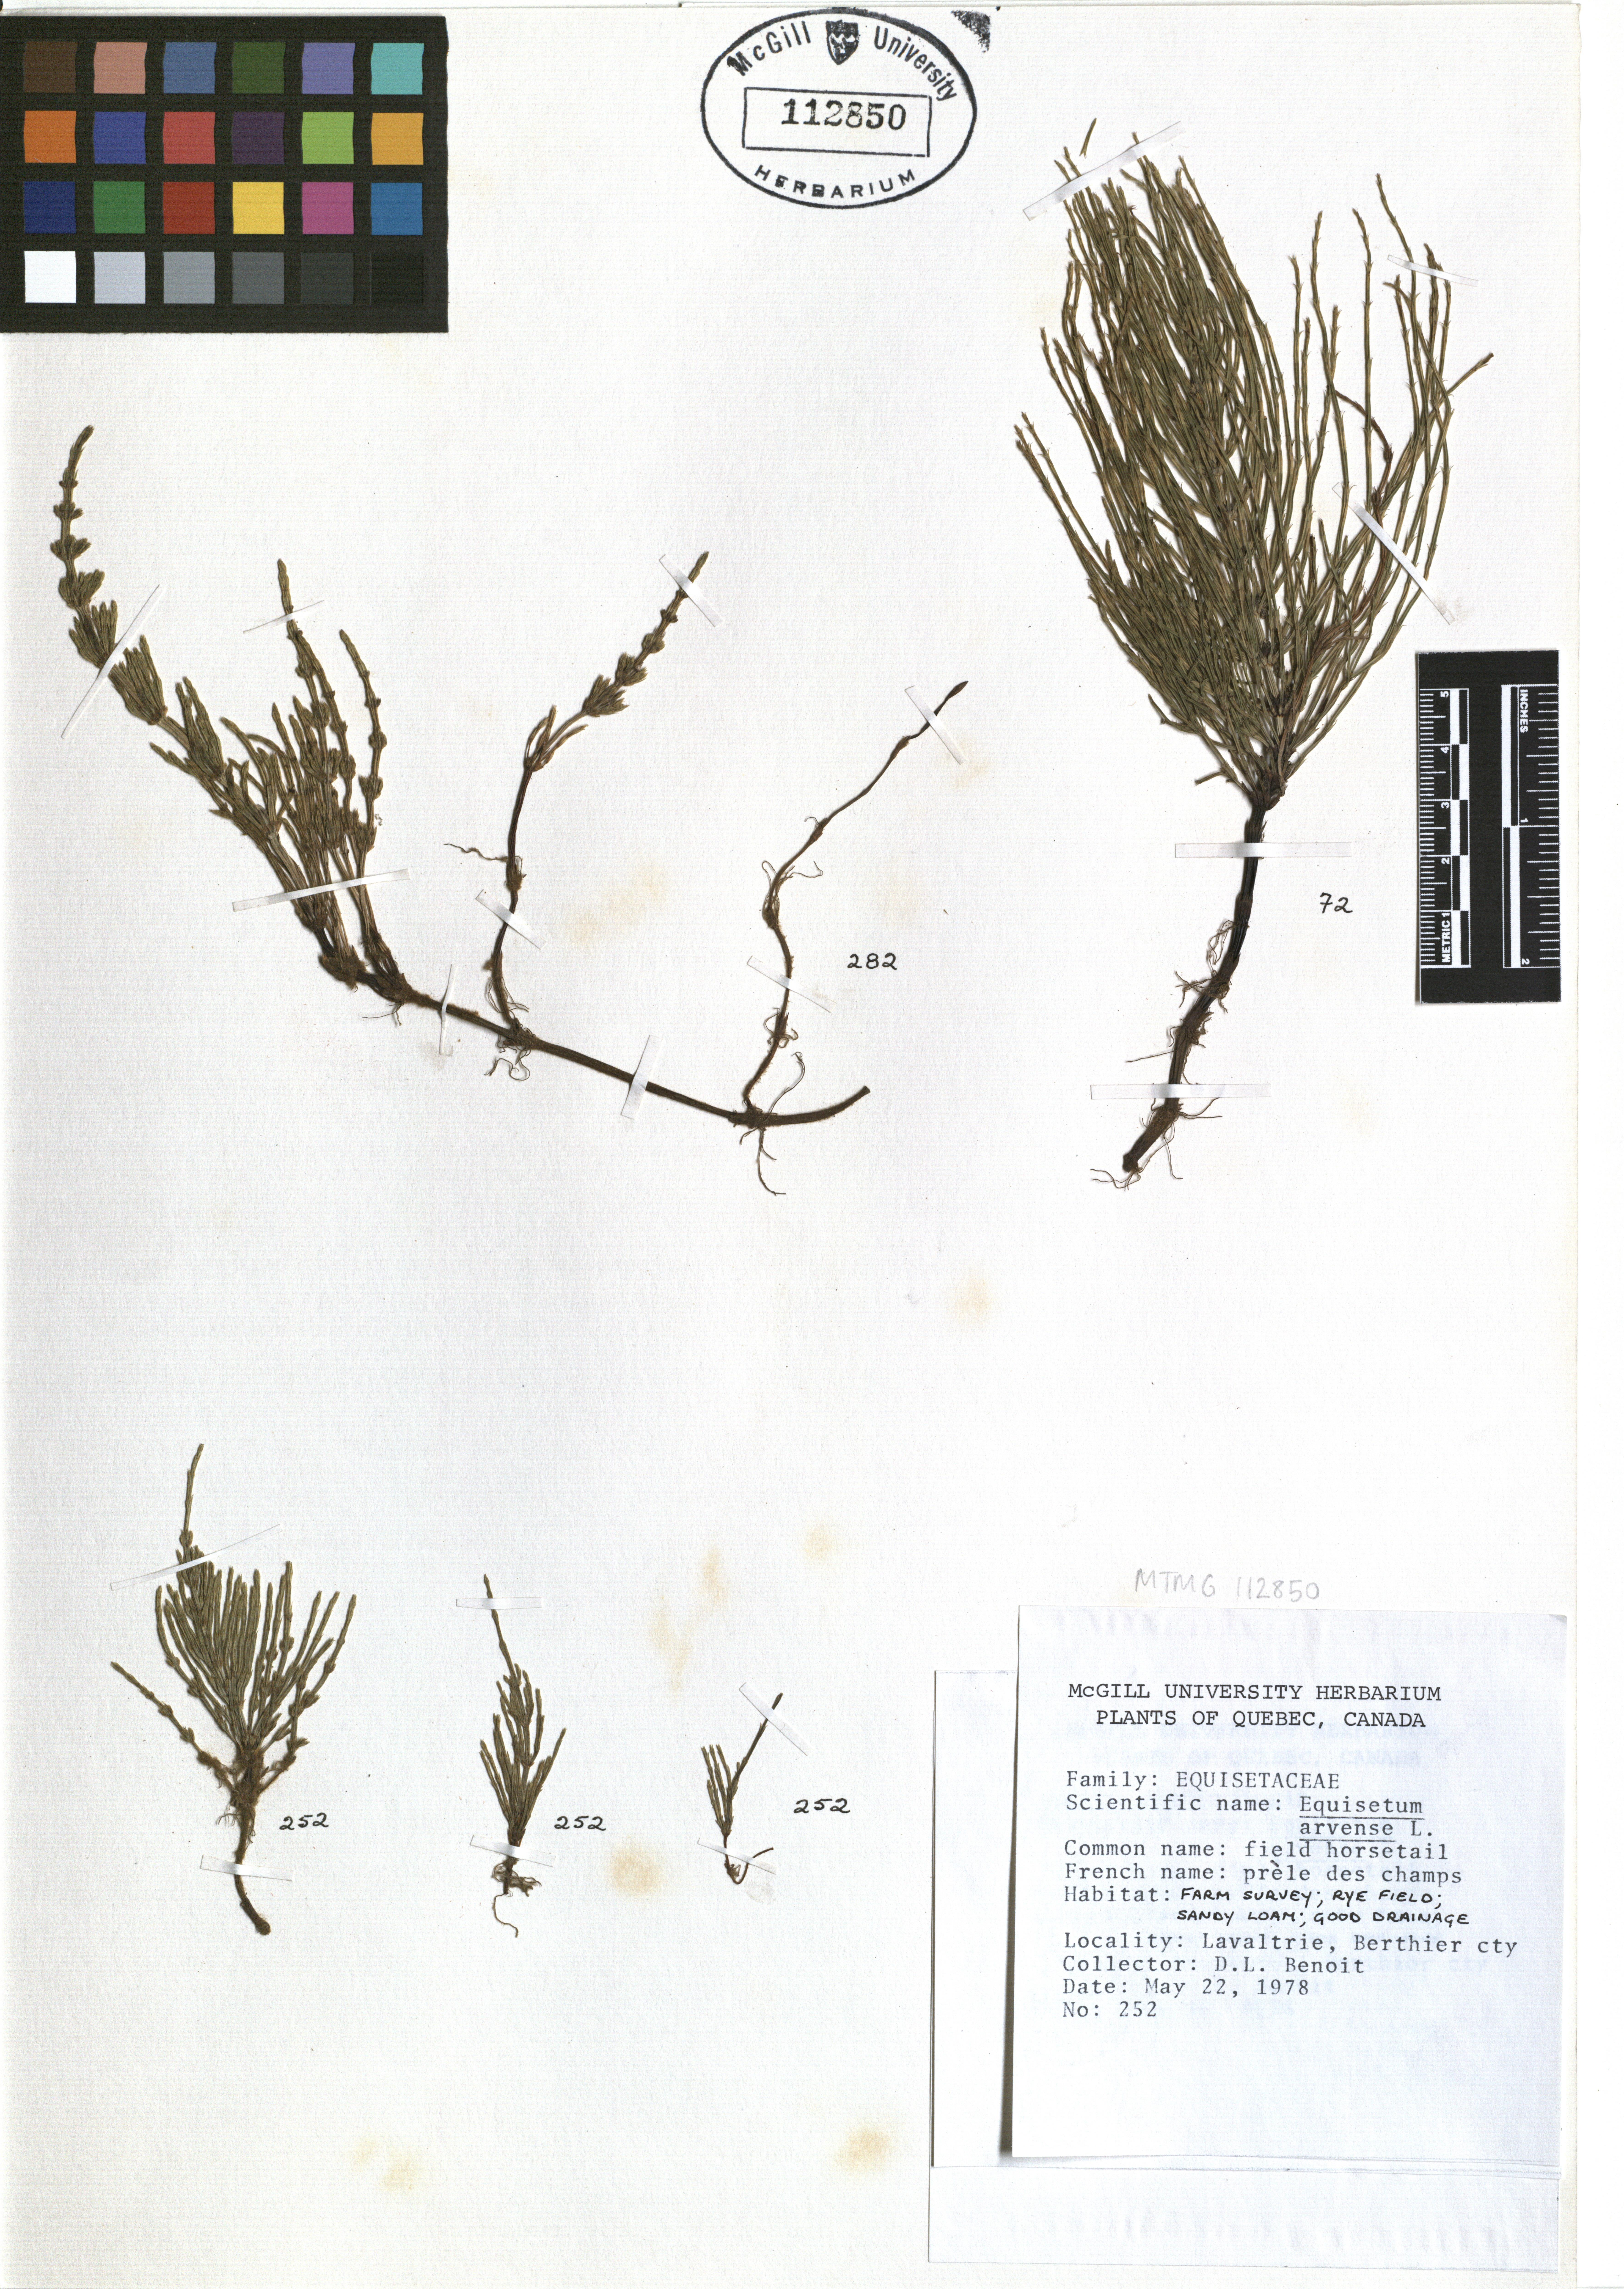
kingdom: Plantae
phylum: Tracheophyta
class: Polypodiopsida
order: Equisetales
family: Equisetaceae
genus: Equisetum
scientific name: Equisetum arvense
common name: Field horsetail
